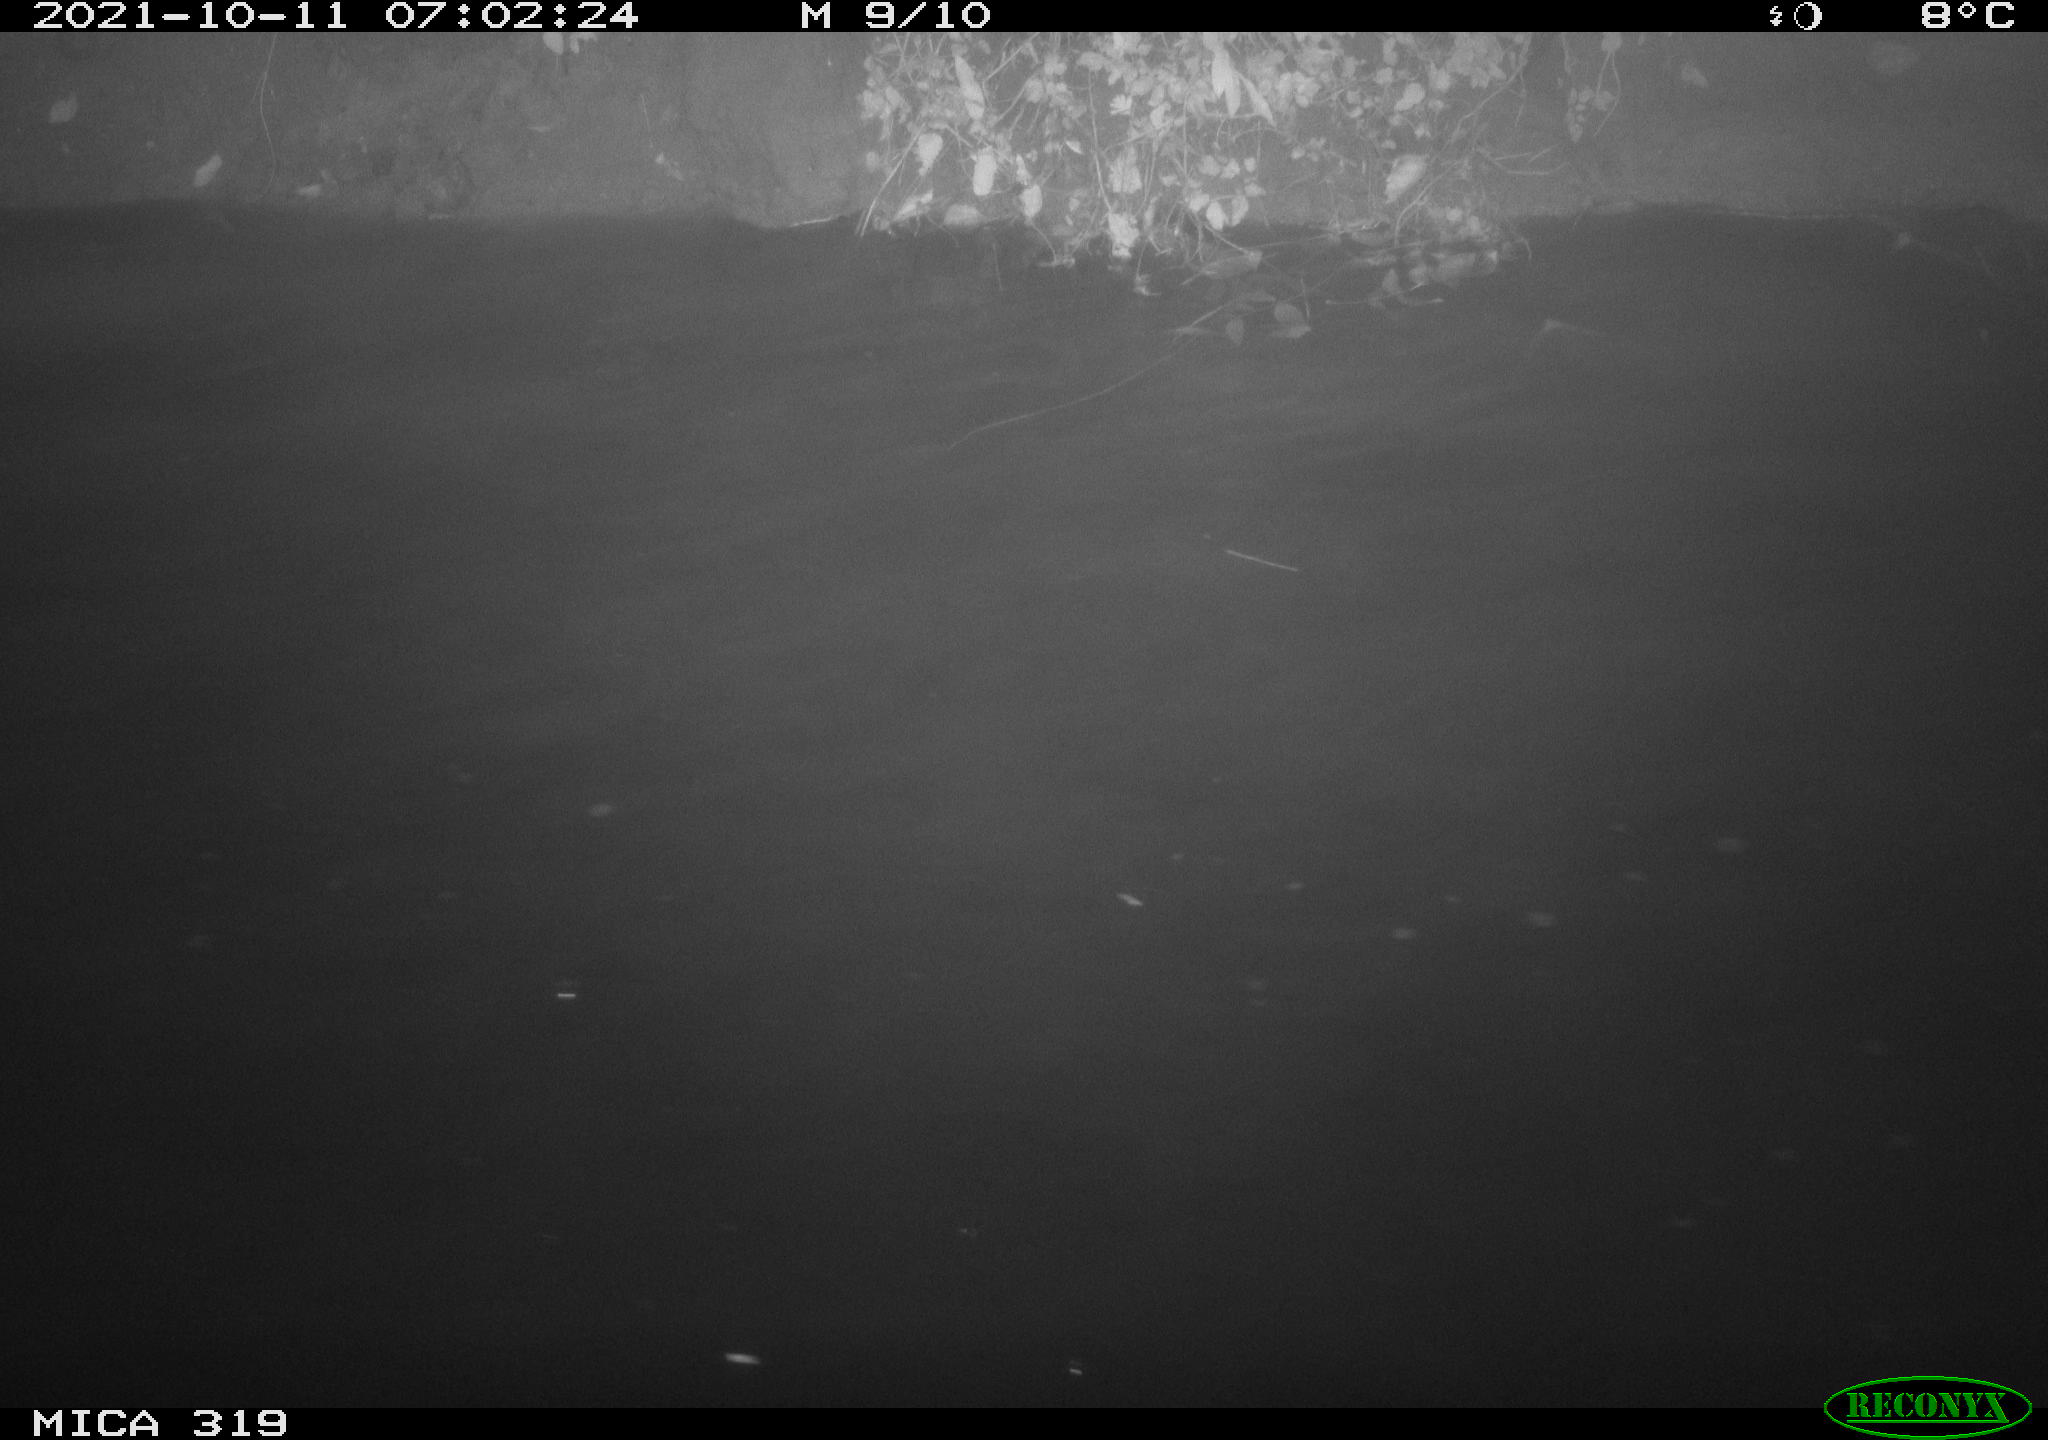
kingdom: Animalia
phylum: Chordata
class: Aves
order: Anseriformes
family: Anatidae
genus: Anas
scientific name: Anas platyrhynchos
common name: Mallard
